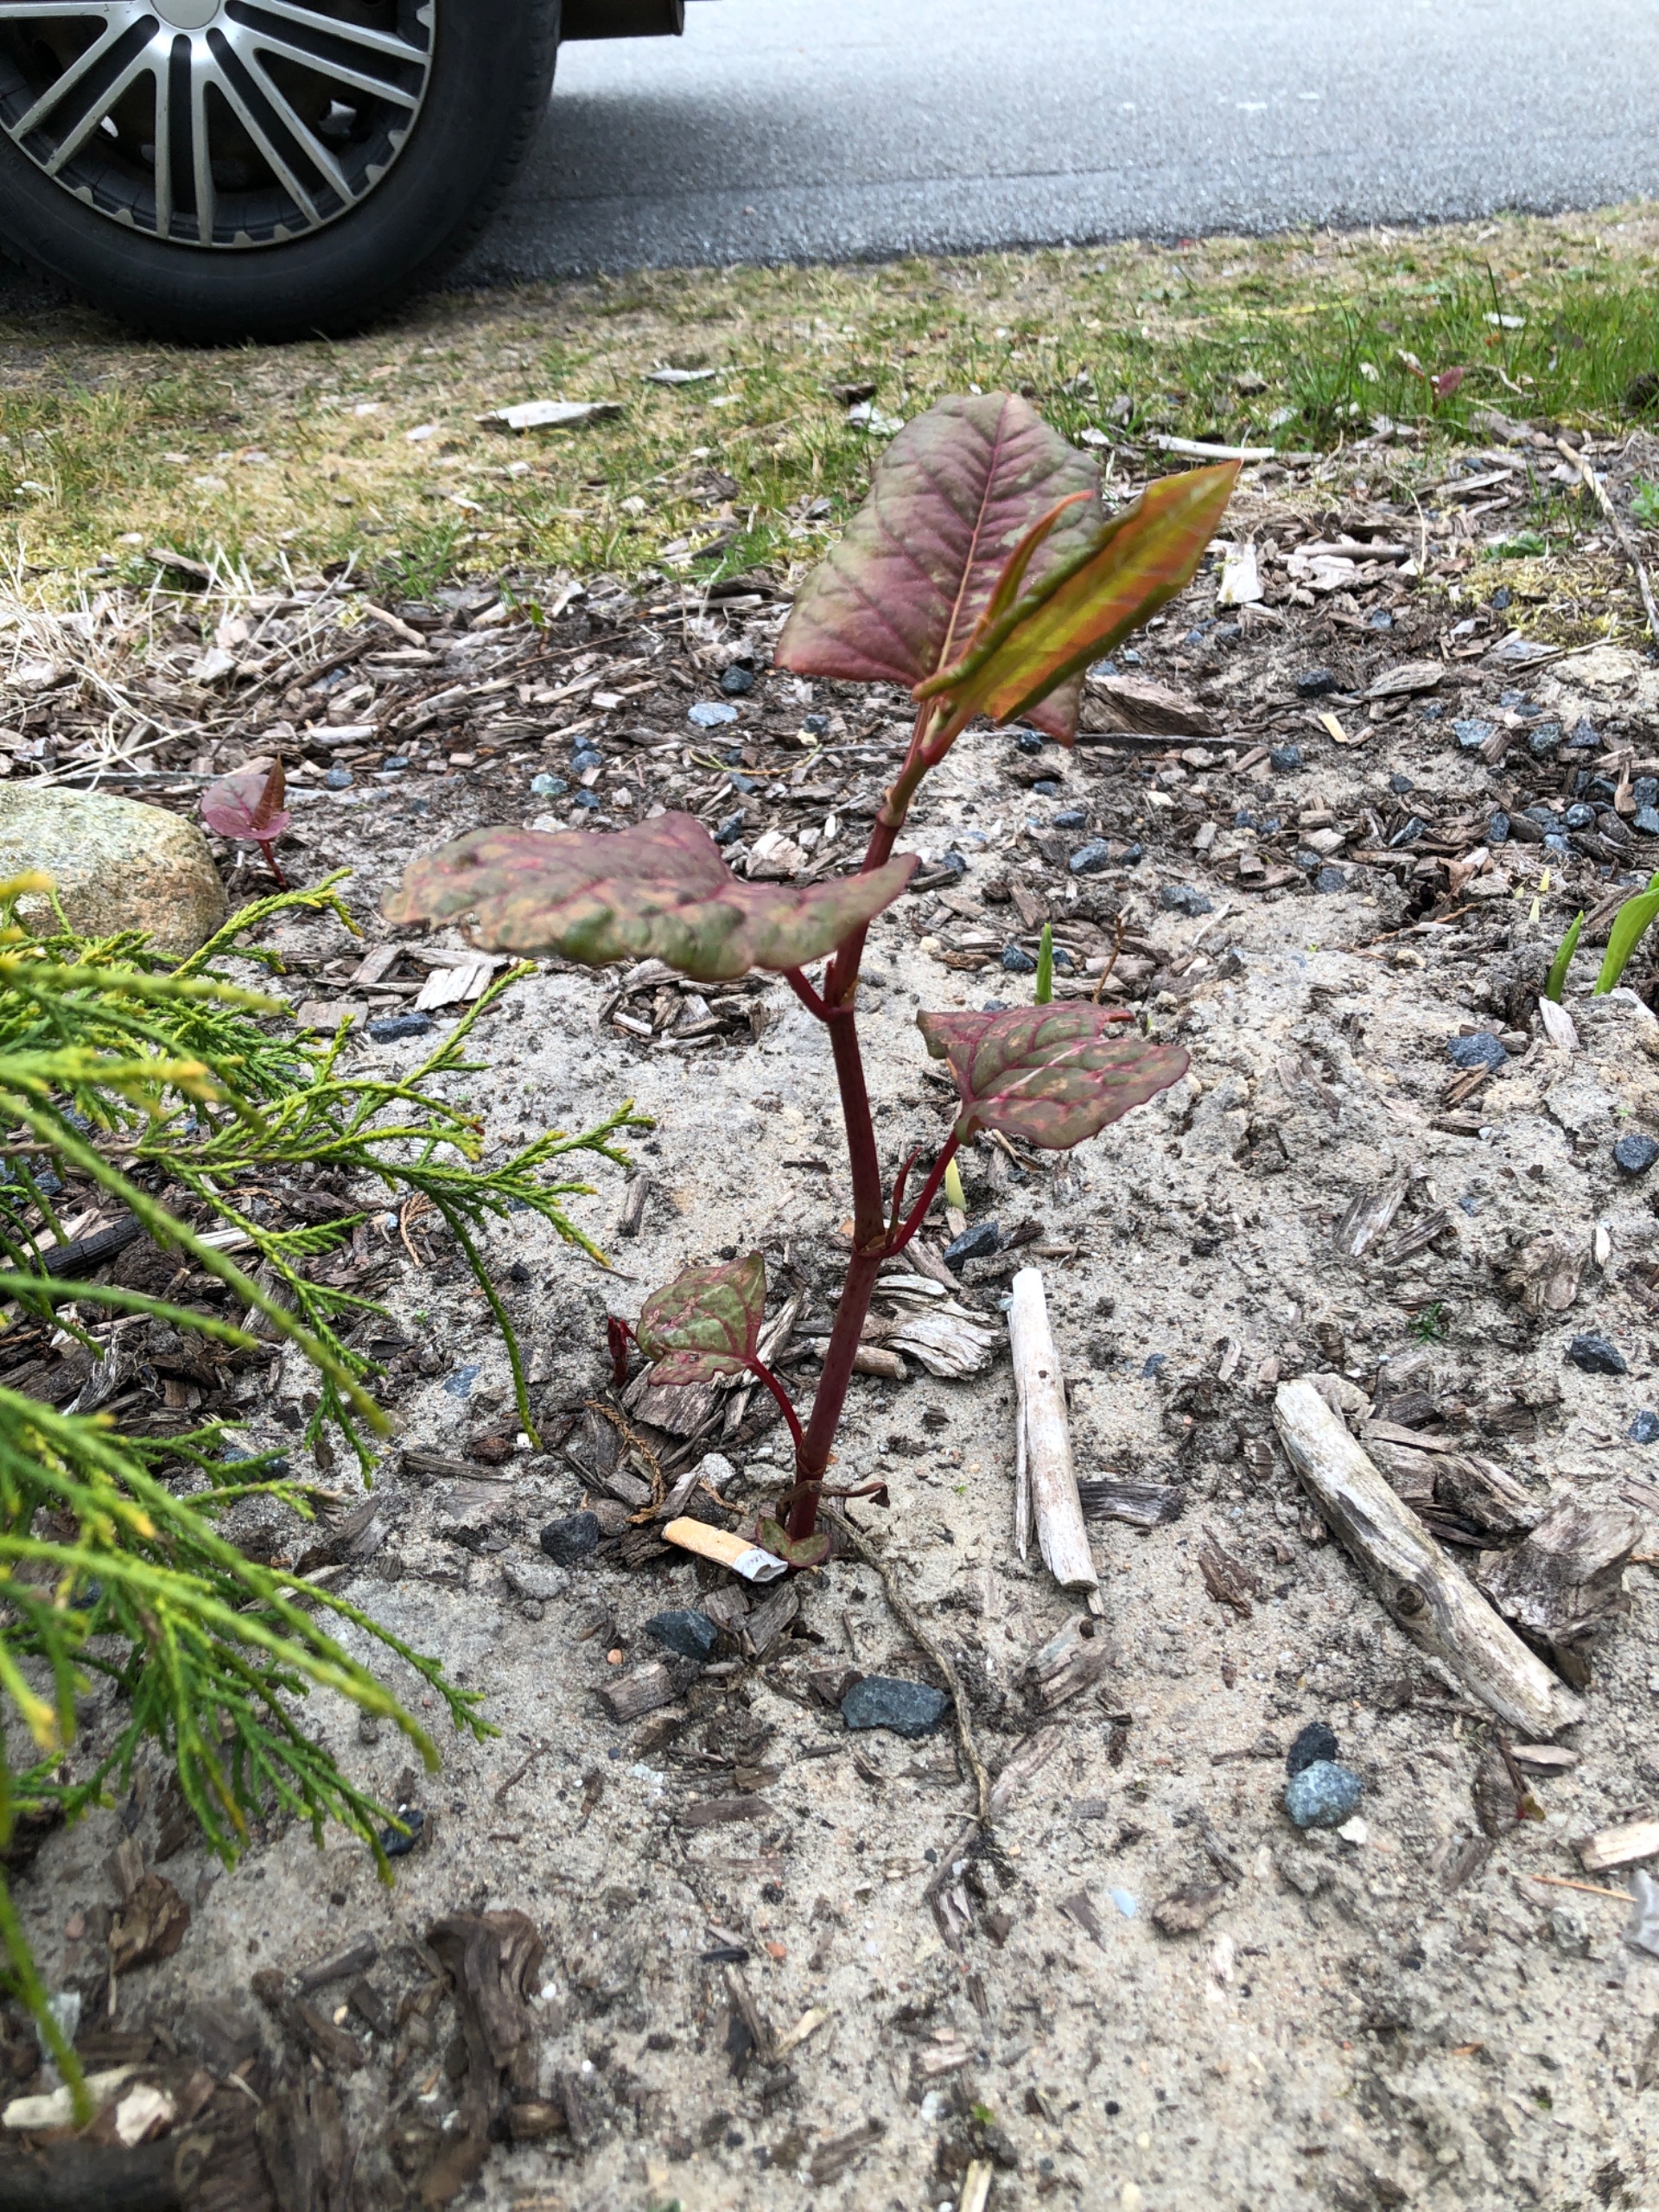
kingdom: Plantae
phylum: Tracheophyta
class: Magnoliopsida
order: Caryophyllales
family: Polygonaceae
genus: Reynoutria
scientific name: Reynoutria japonica
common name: Japan-pileurt
